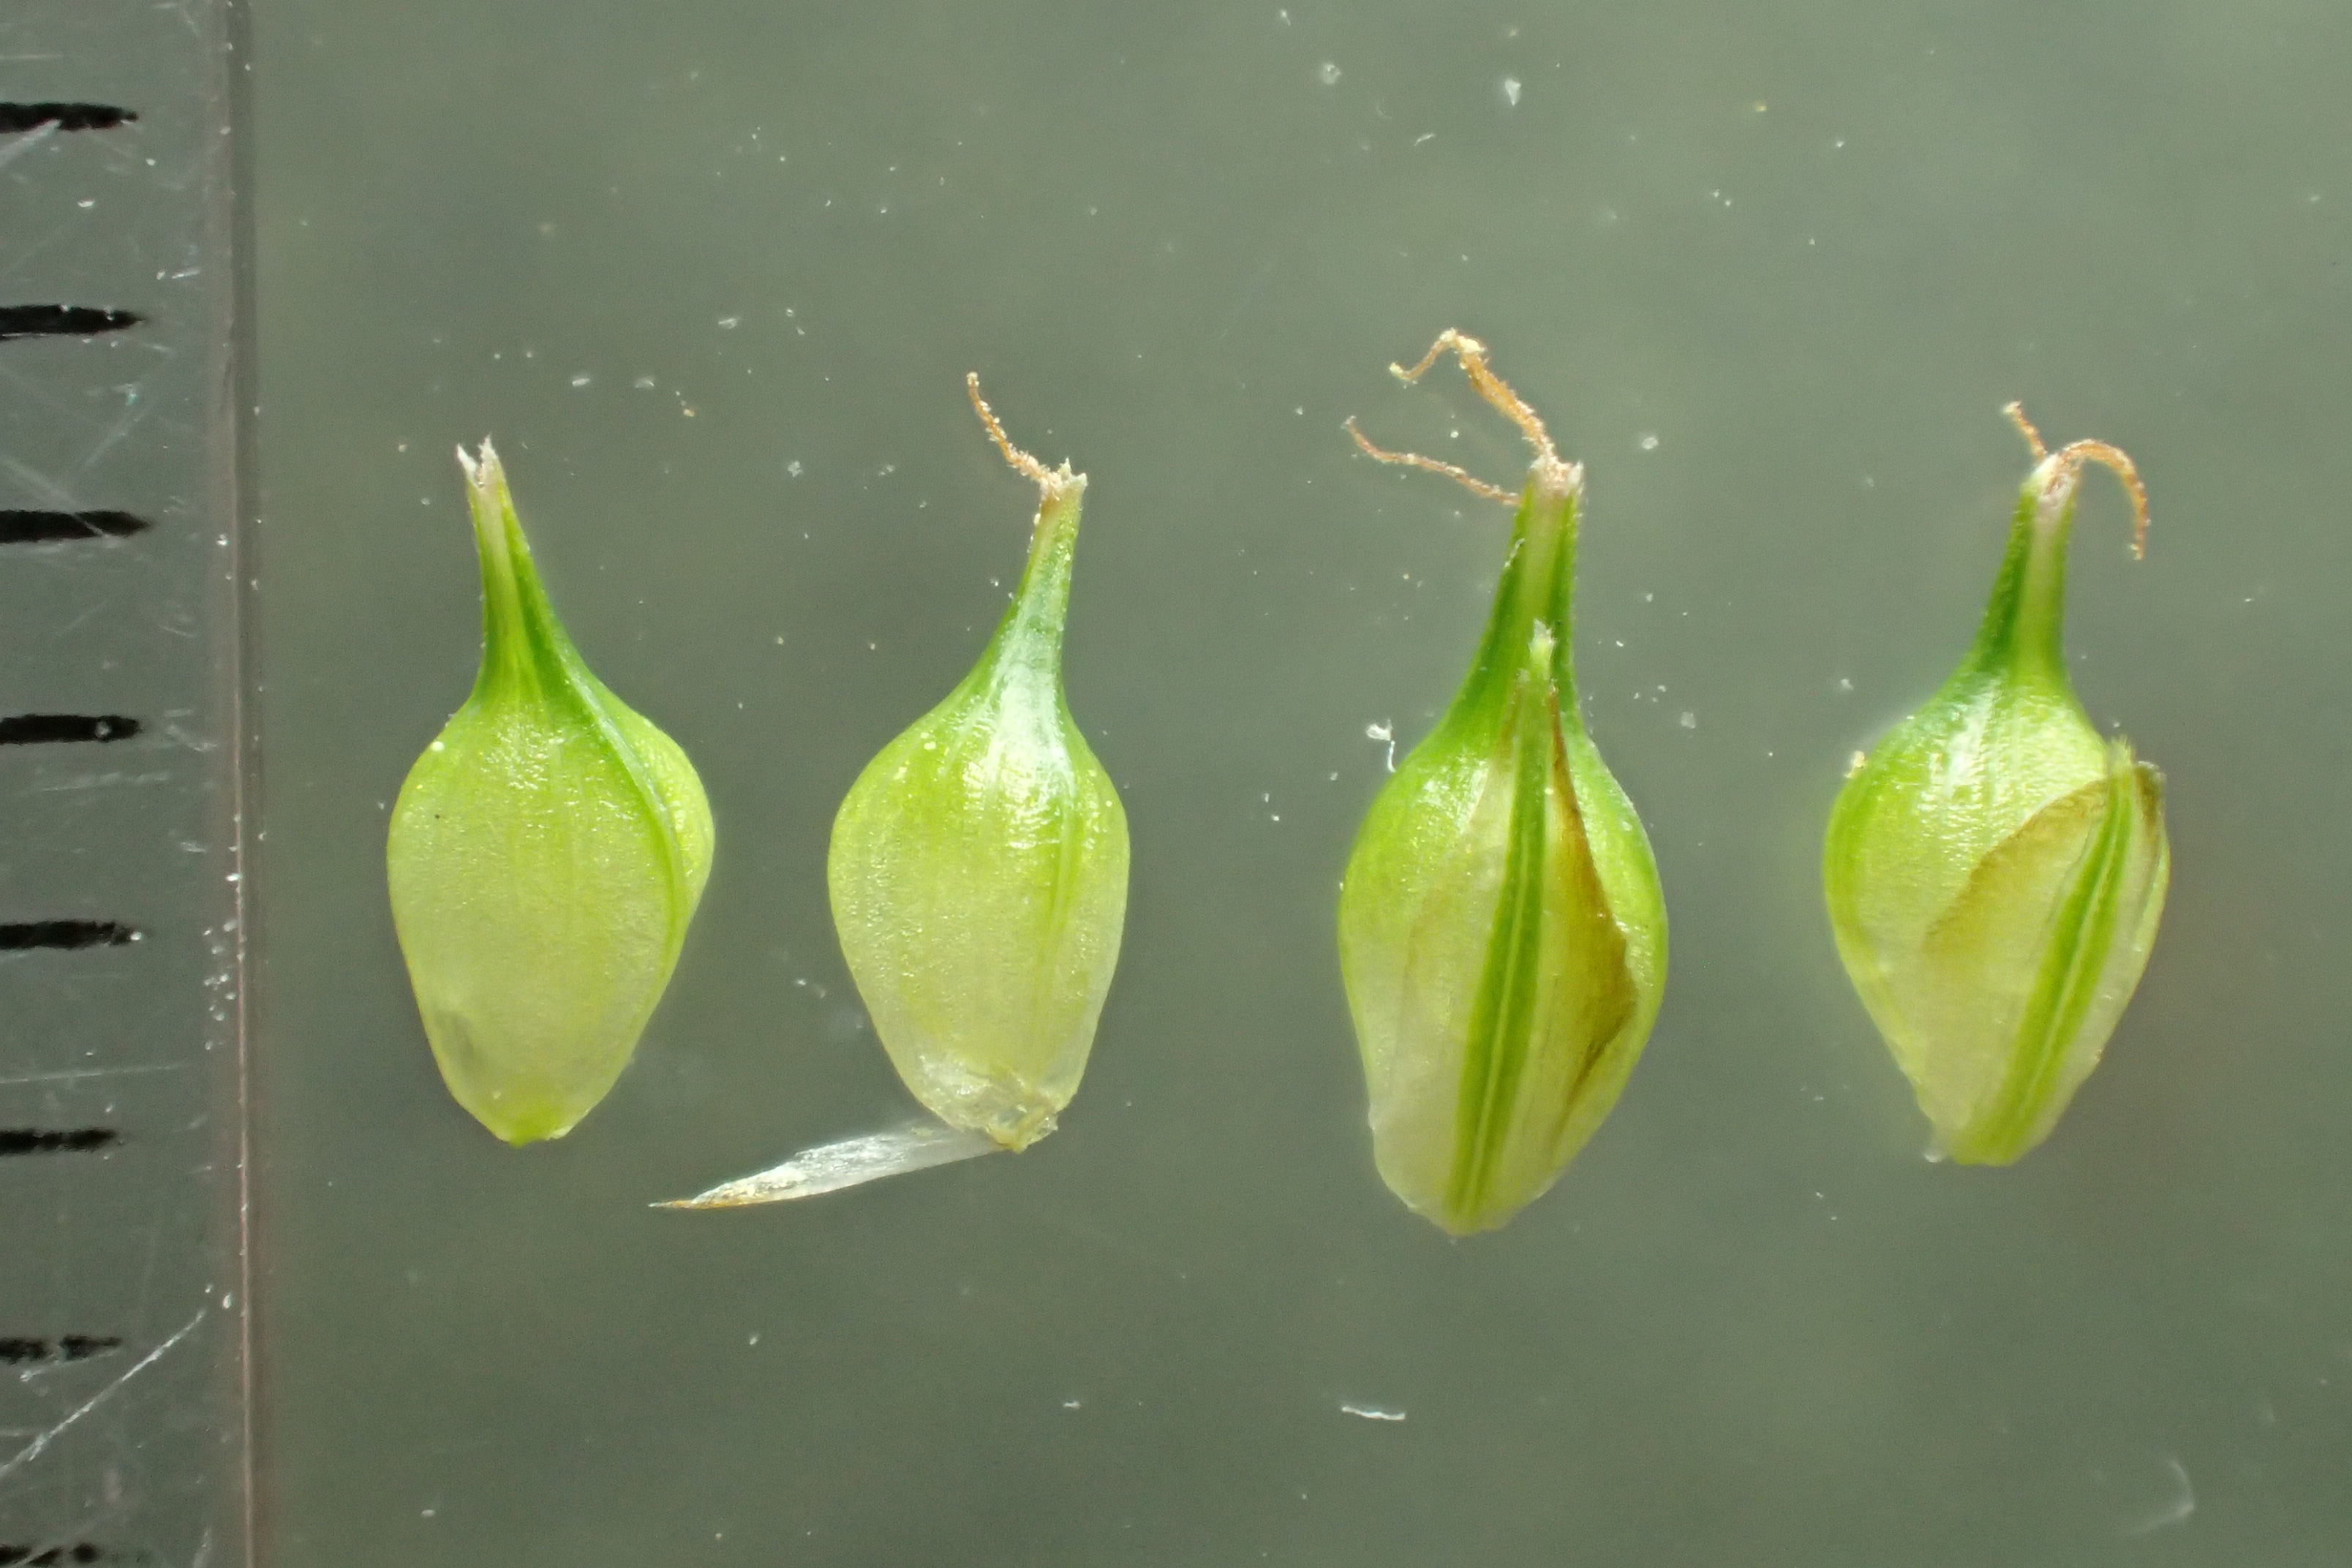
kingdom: Plantae
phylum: Tracheophyta
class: Liliopsida
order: Poales
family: Cyperaceae
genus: Carex
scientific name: Carex demissa
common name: Grøn star
